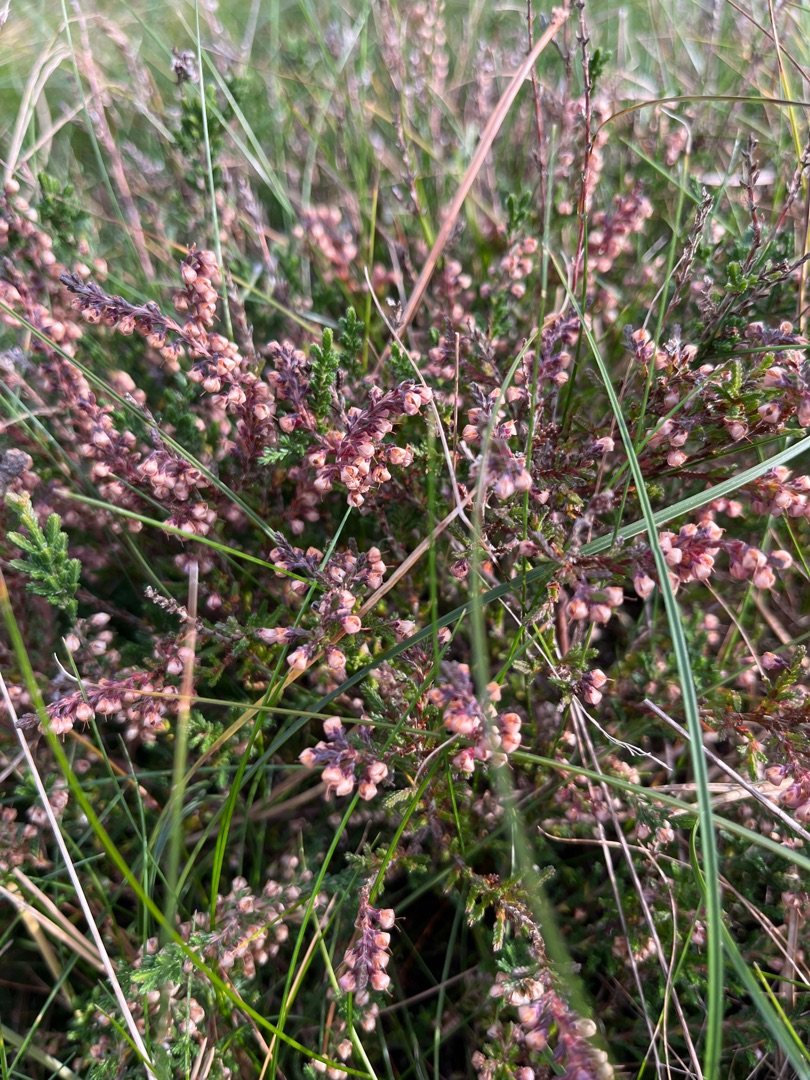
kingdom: Plantae
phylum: Tracheophyta
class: Magnoliopsida
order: Ericales
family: Ericaceae
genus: Calluna
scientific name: Calluna vulgaris
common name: Hedelyng
